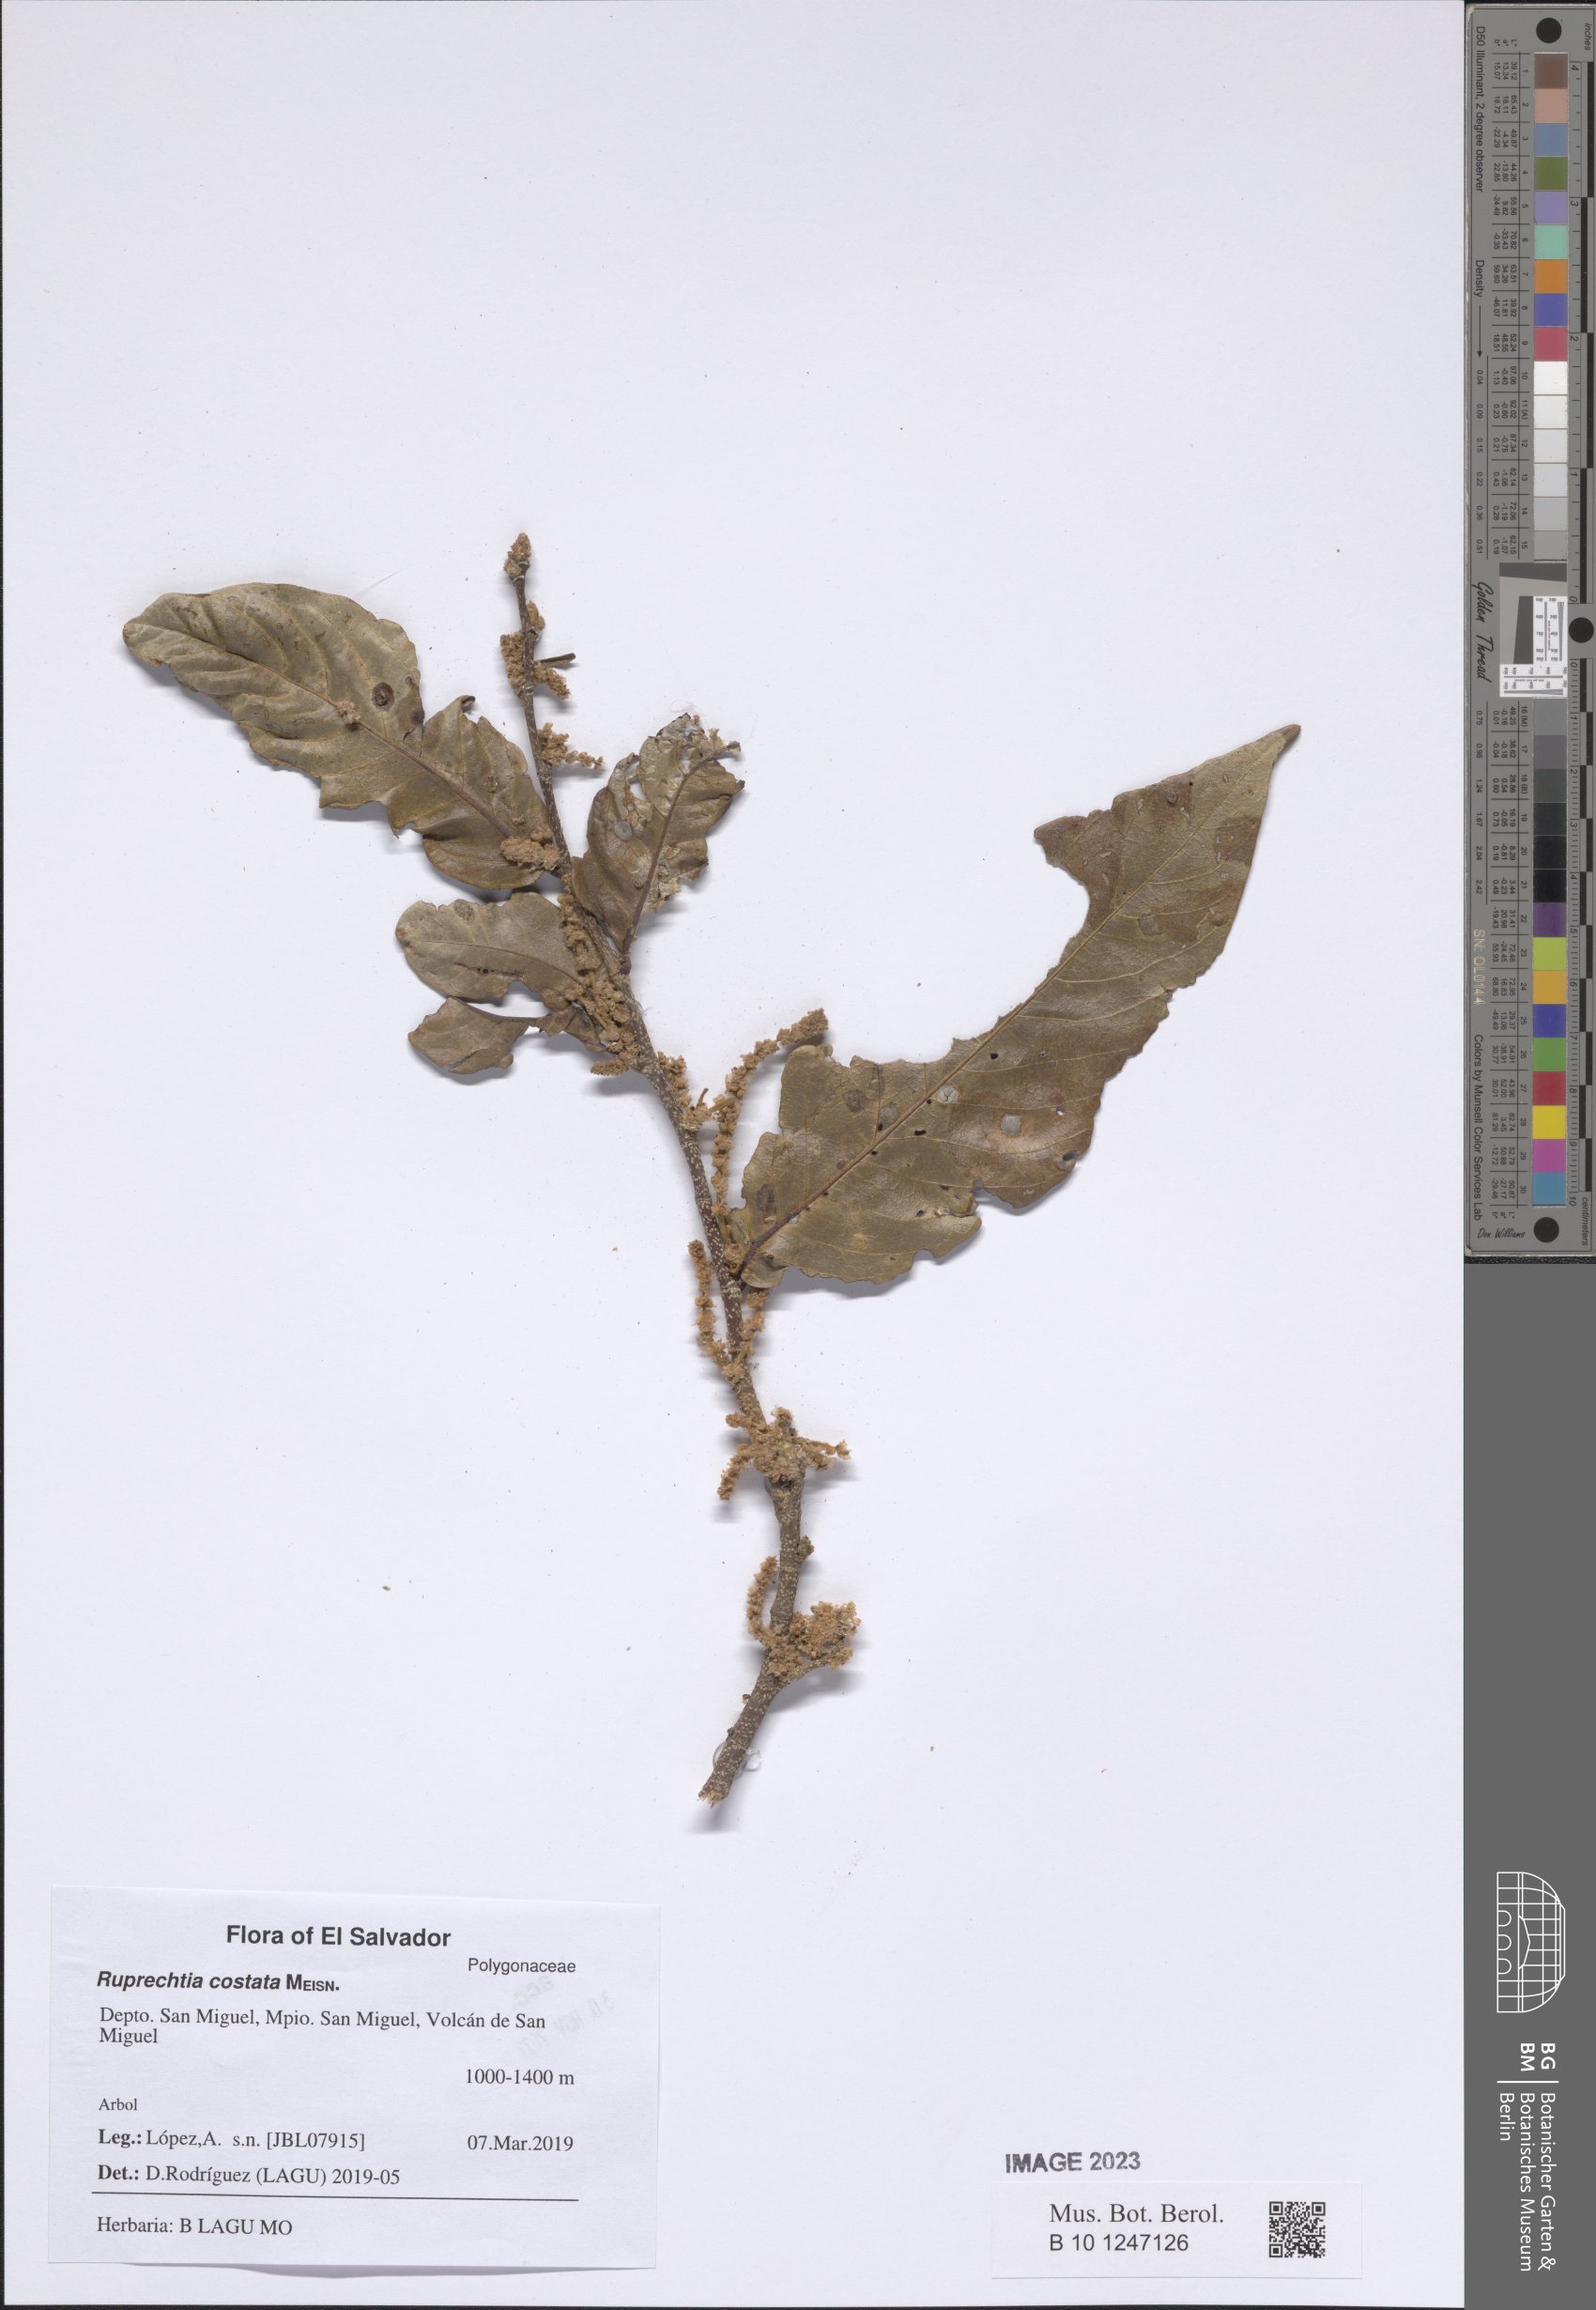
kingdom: Plantae
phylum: Tracheophyta
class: Magnoliopsida
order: Caryophyllales
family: Polygonaceae
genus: Ruprechtia
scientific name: Ruprechtia costata
